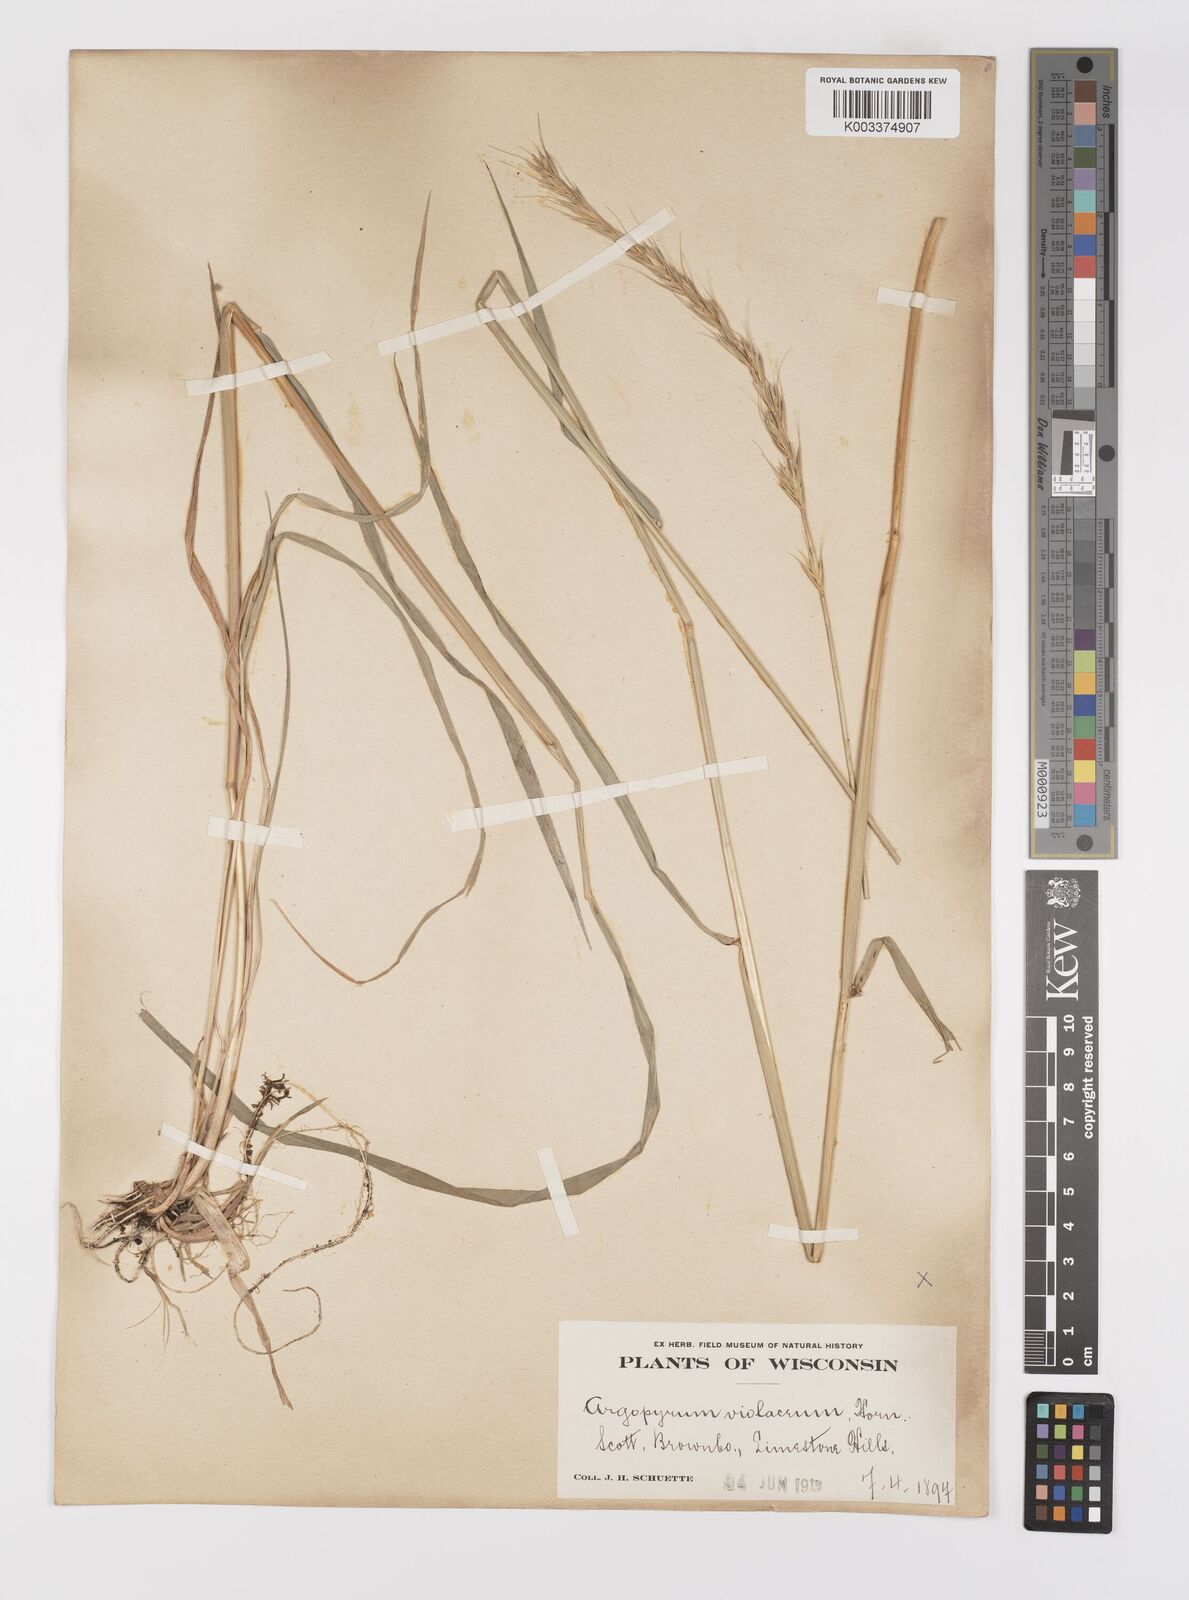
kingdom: Plantae
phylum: Tracheophyta
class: Liliopsida
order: Poales
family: Poaceae
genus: Elymus
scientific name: Elymus violaceus
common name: Arctic wheatgrass
